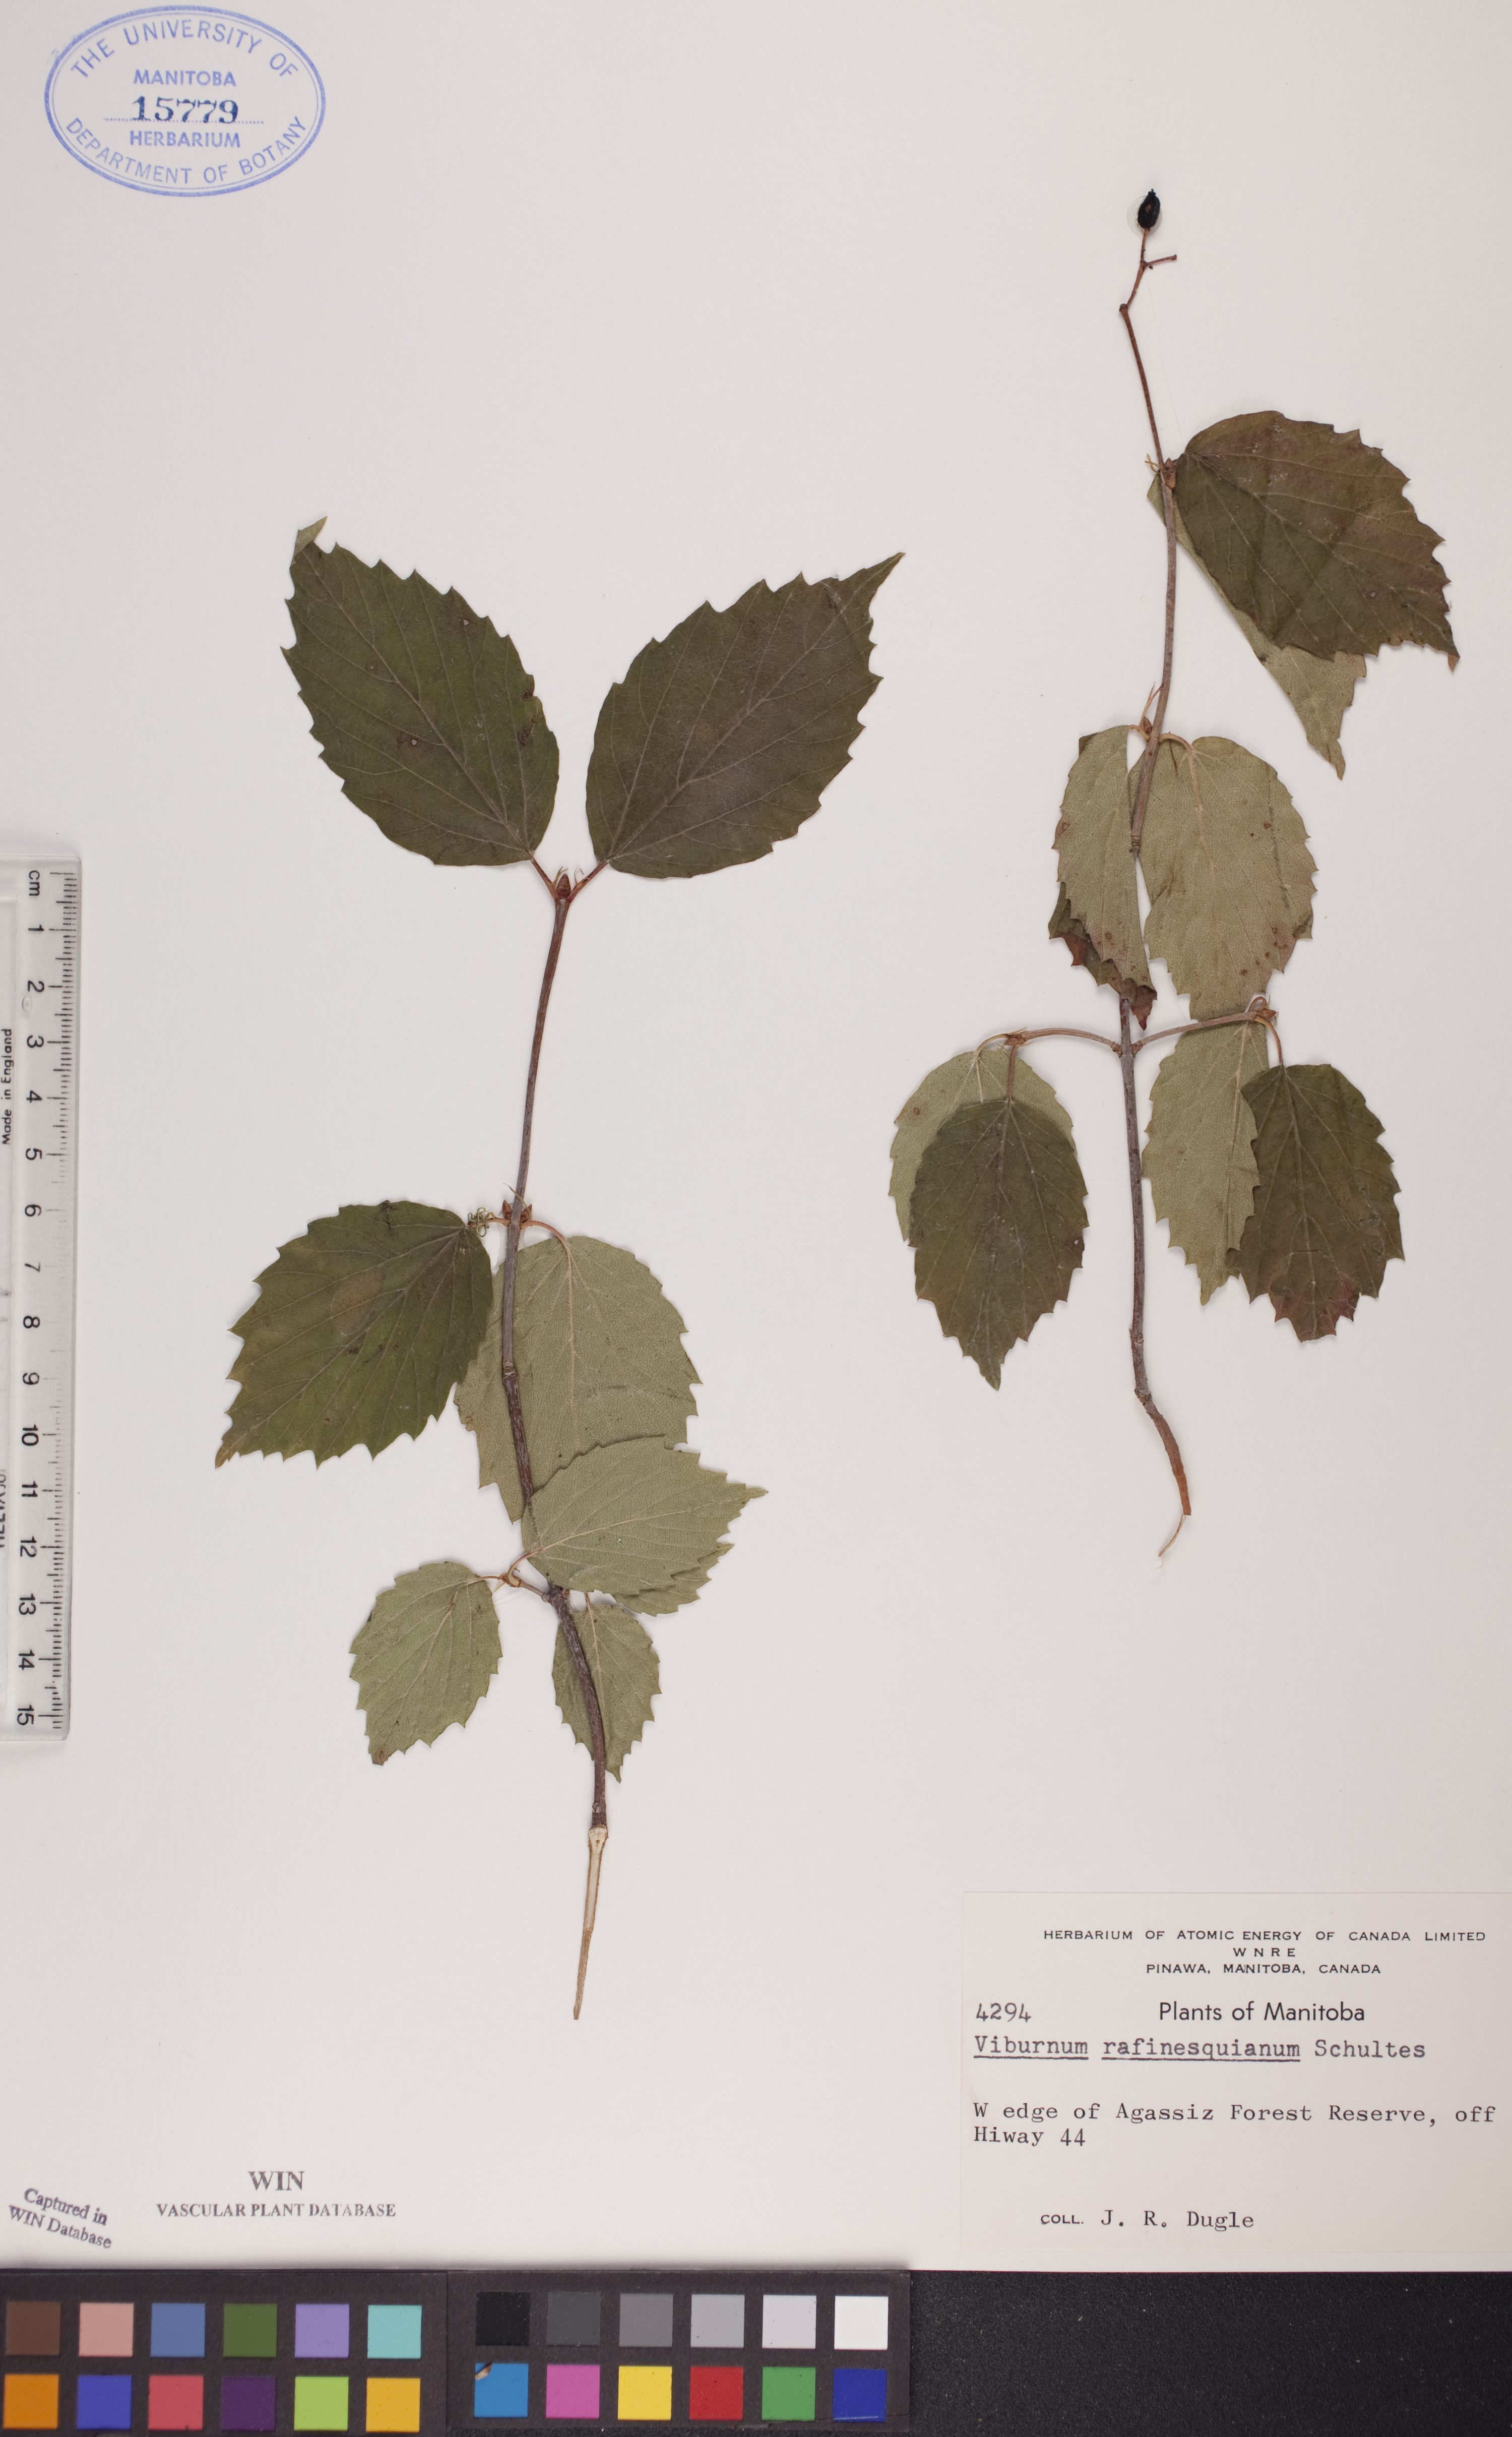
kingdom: Plantae
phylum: Tracheophyta
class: Magnoliopsida
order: Dipsacales
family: Viburnaceae
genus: Viburnum
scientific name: Viburnum rafinesquianum
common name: Downy arrow-wood
